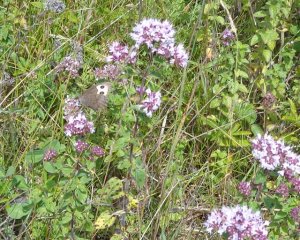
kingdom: Animalia
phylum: Arthropoda
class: Insecta
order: Lepidoptera
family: Nymphalidae
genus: Cercyonis
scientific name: Cercyonis pegala
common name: Common Wood-Nymph
